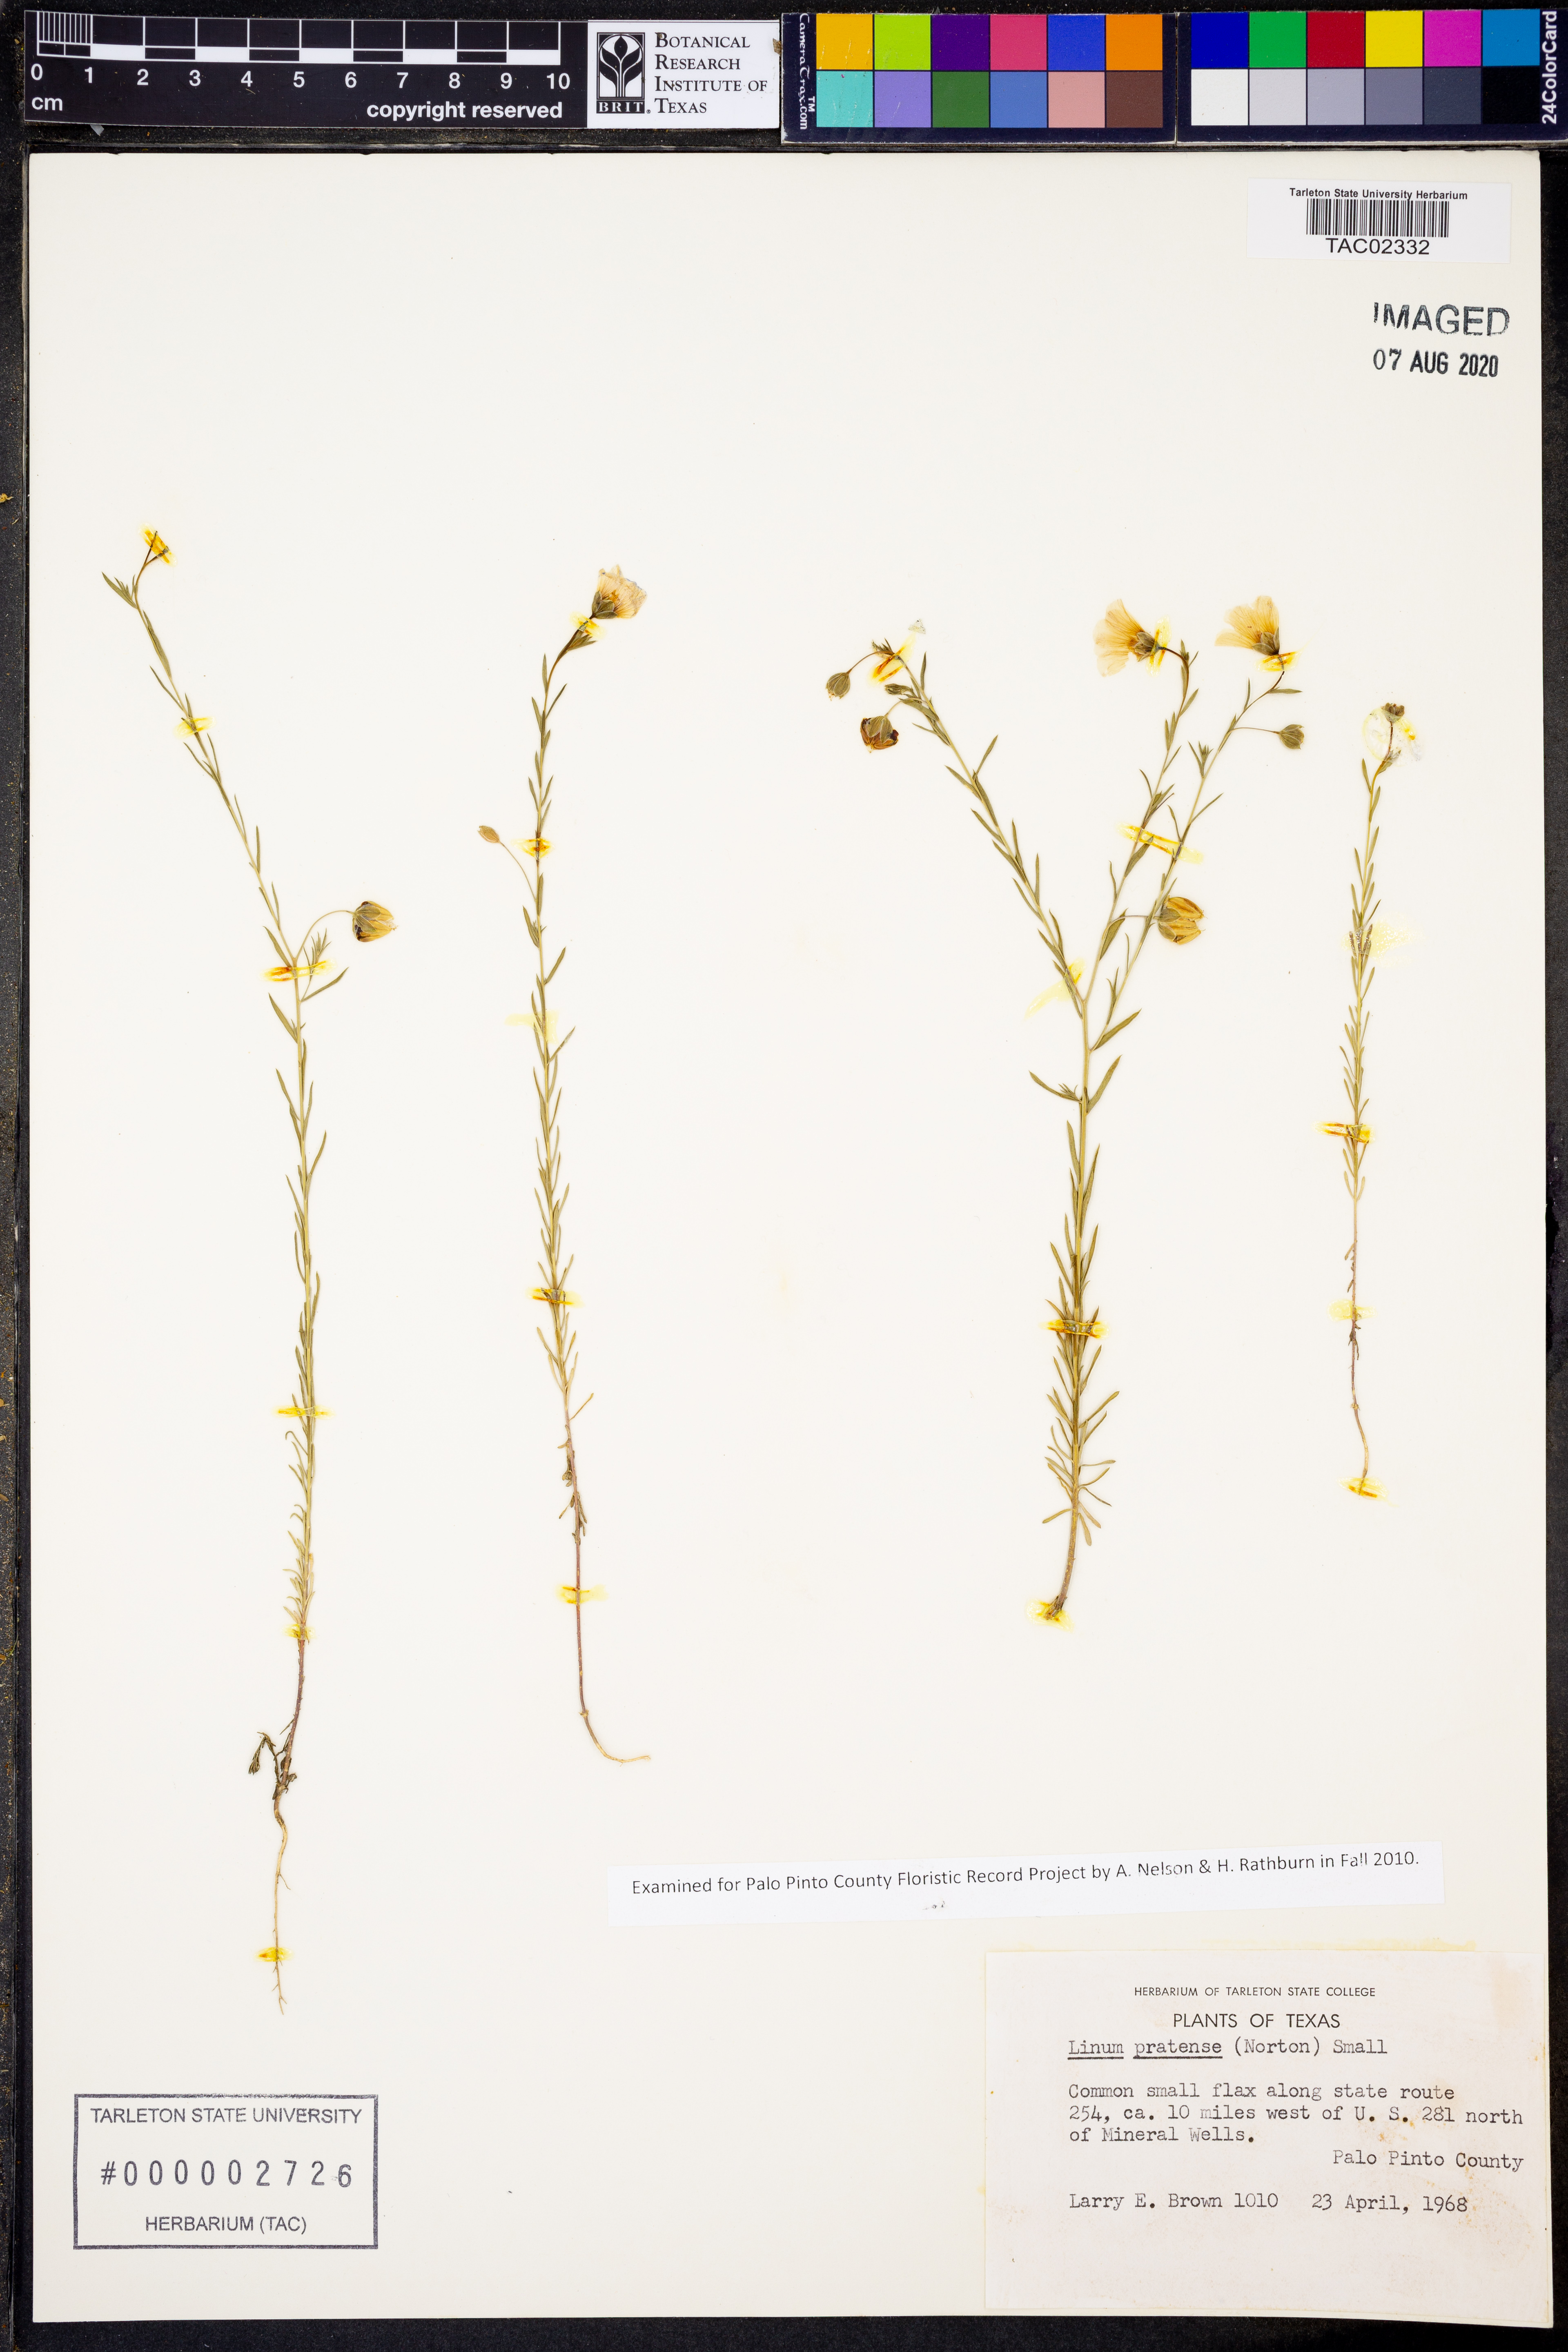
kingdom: Plantae
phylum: Tracheophyta
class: Magnoliopsida
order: Malpighiales
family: Linaceae
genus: Linum
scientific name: Linum pratense
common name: Norton's flax
